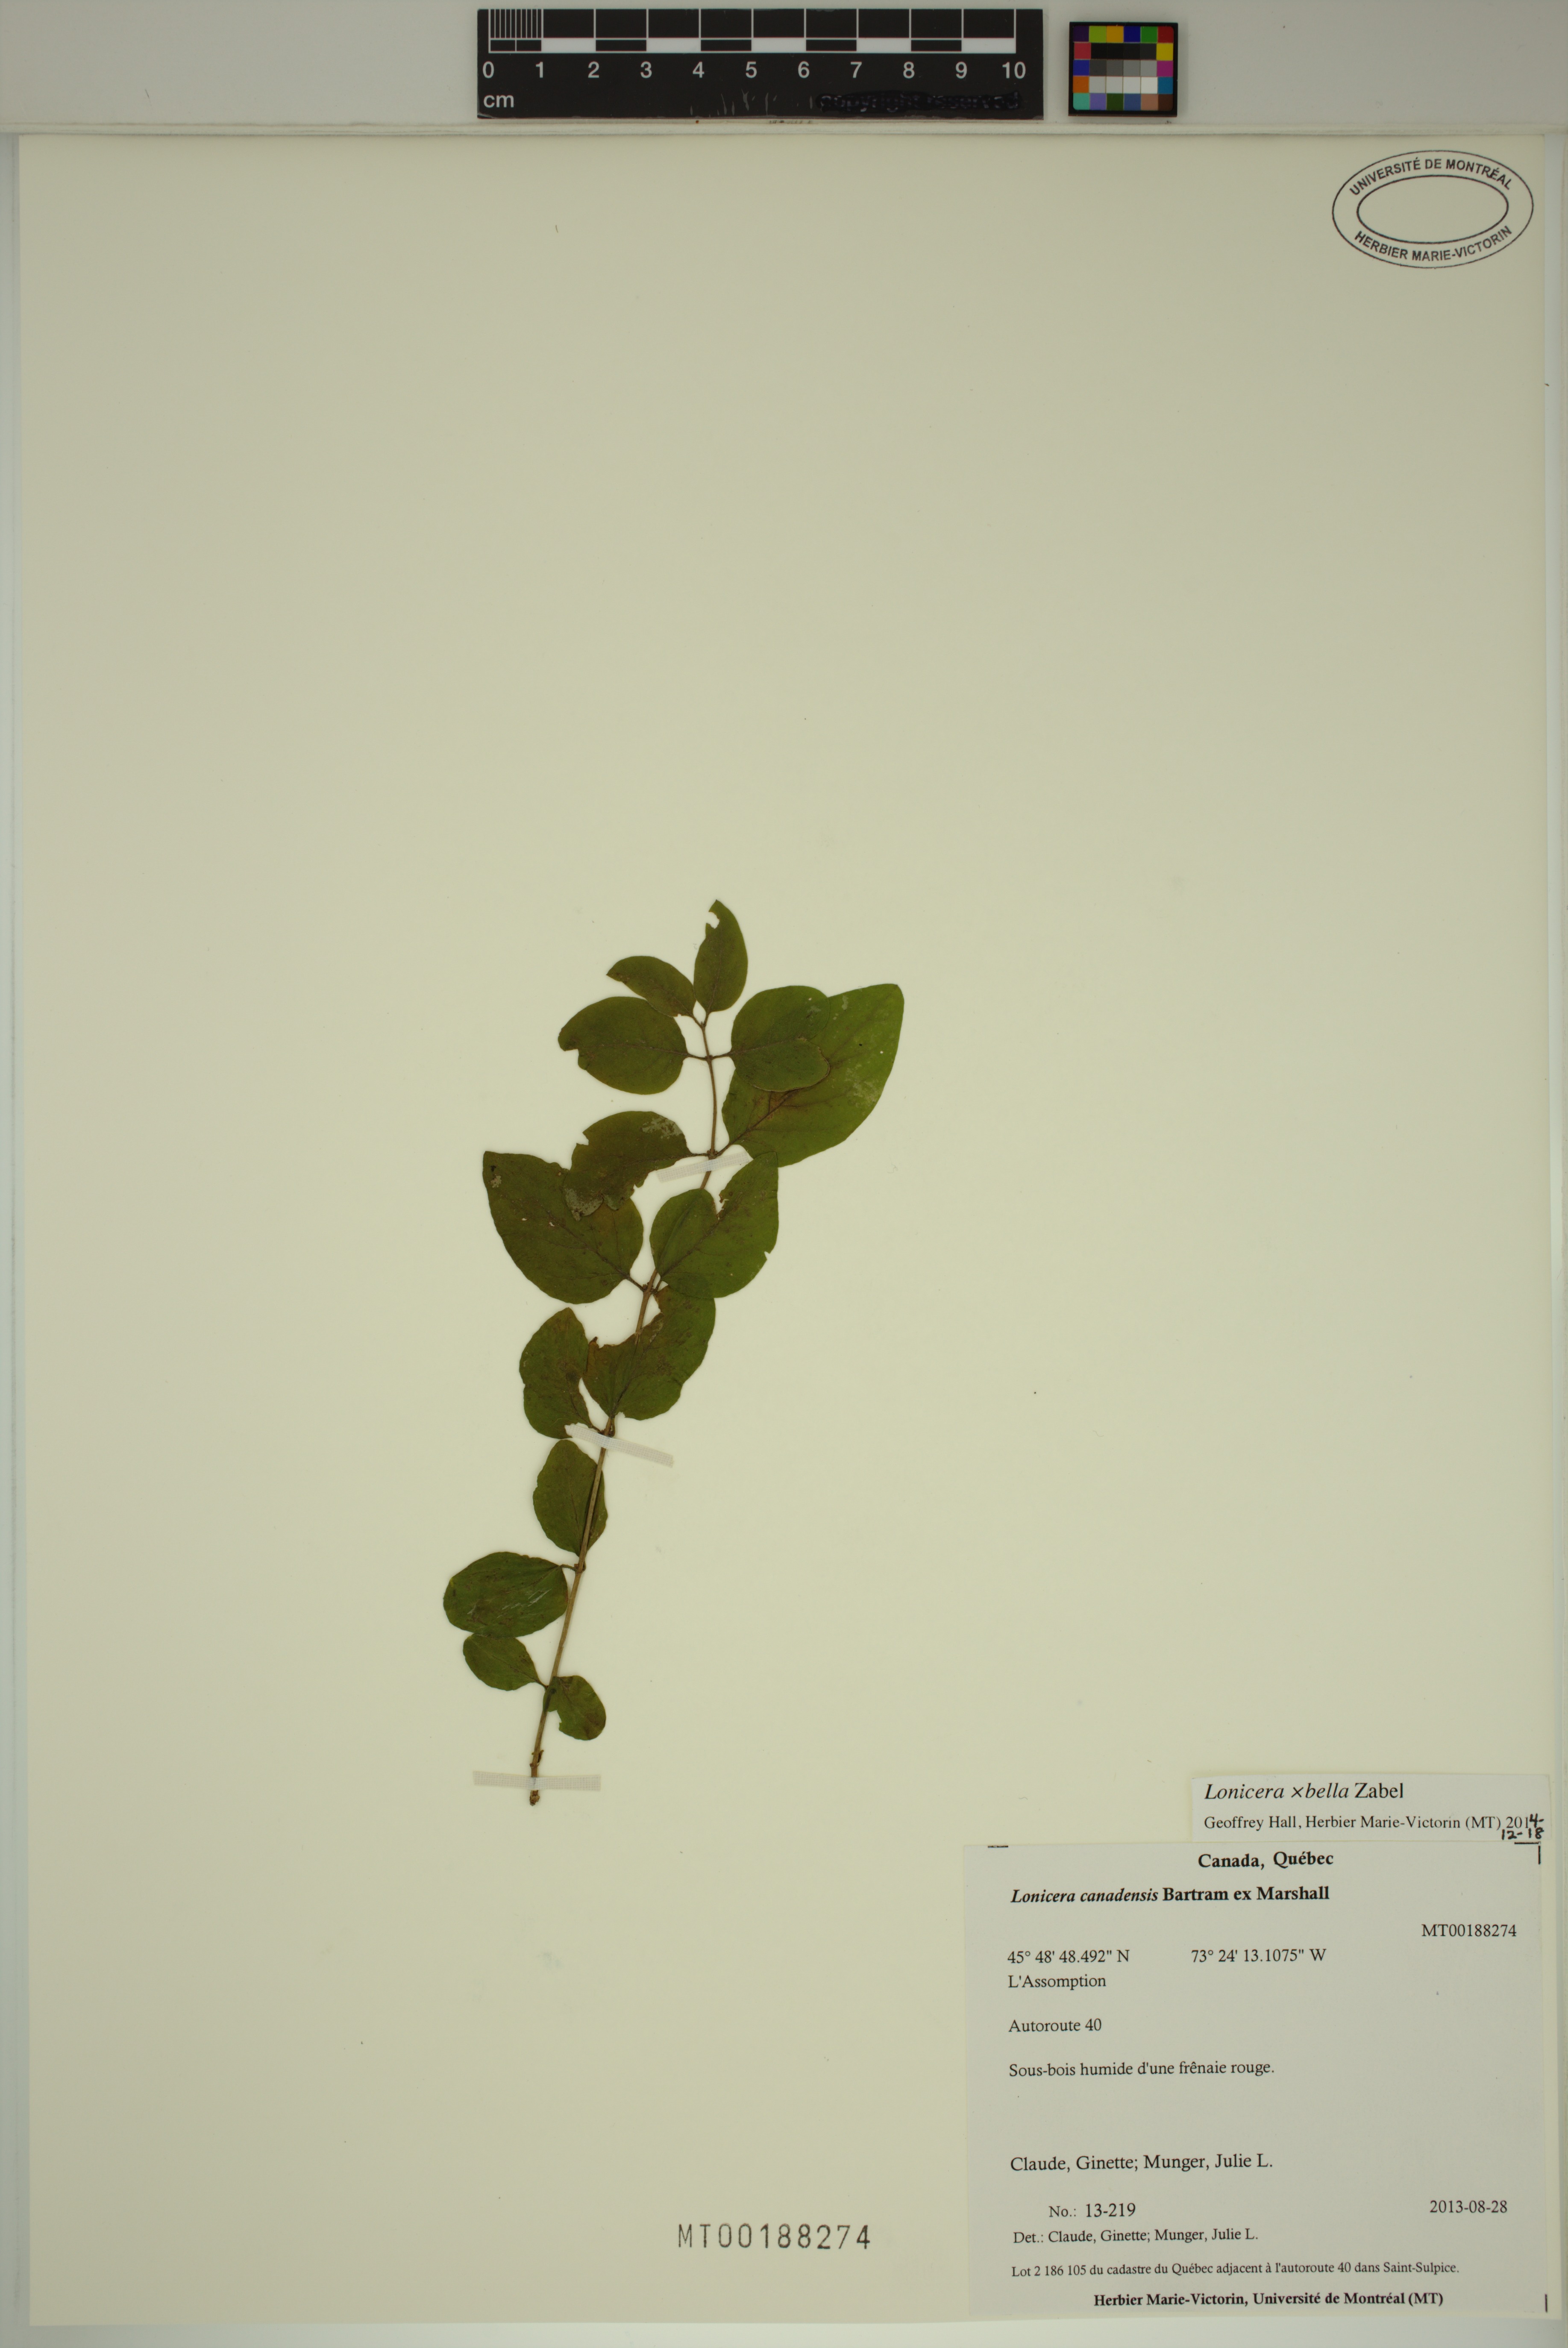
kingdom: Plantae
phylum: Tracheophyta
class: Magnoliopsida
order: Dipsacales
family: Caprifoliaceae
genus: Lonicera
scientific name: Lonicera bella
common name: Bell's honeysuckle
